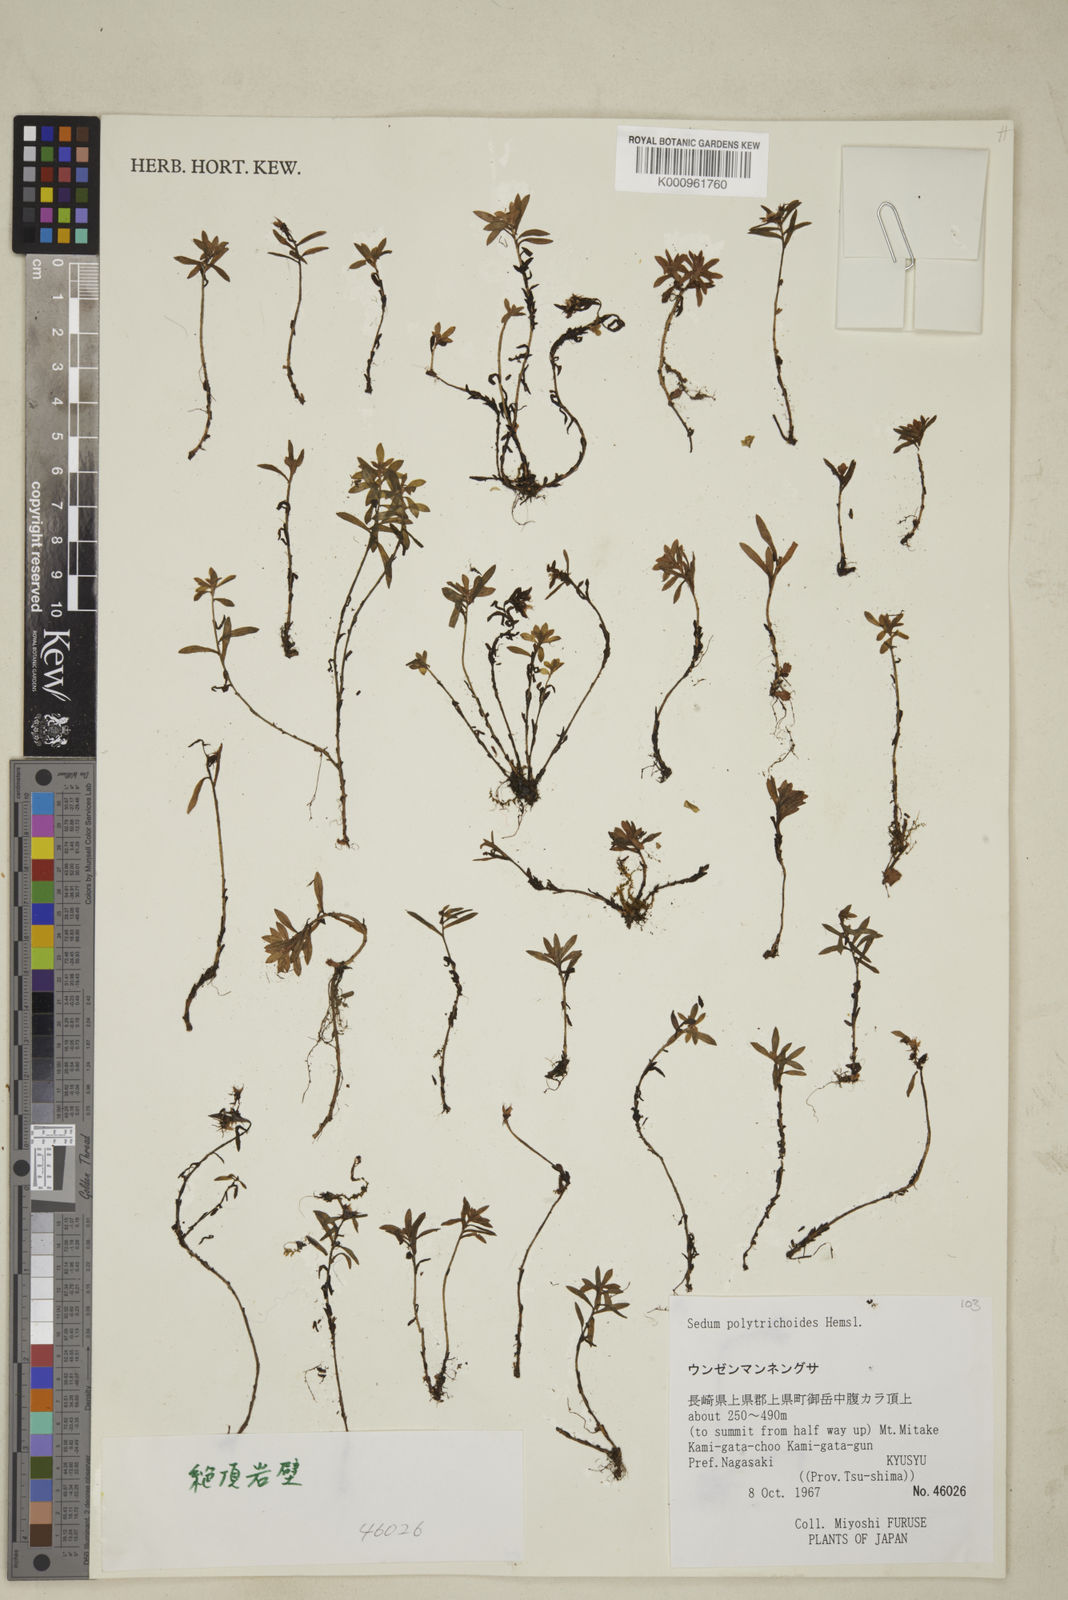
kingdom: Plantae
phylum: Tracheophyta
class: Magnoliopsida
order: Saxifragales
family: Crassulaceae
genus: Sedum
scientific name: Sedum polytrichoides
